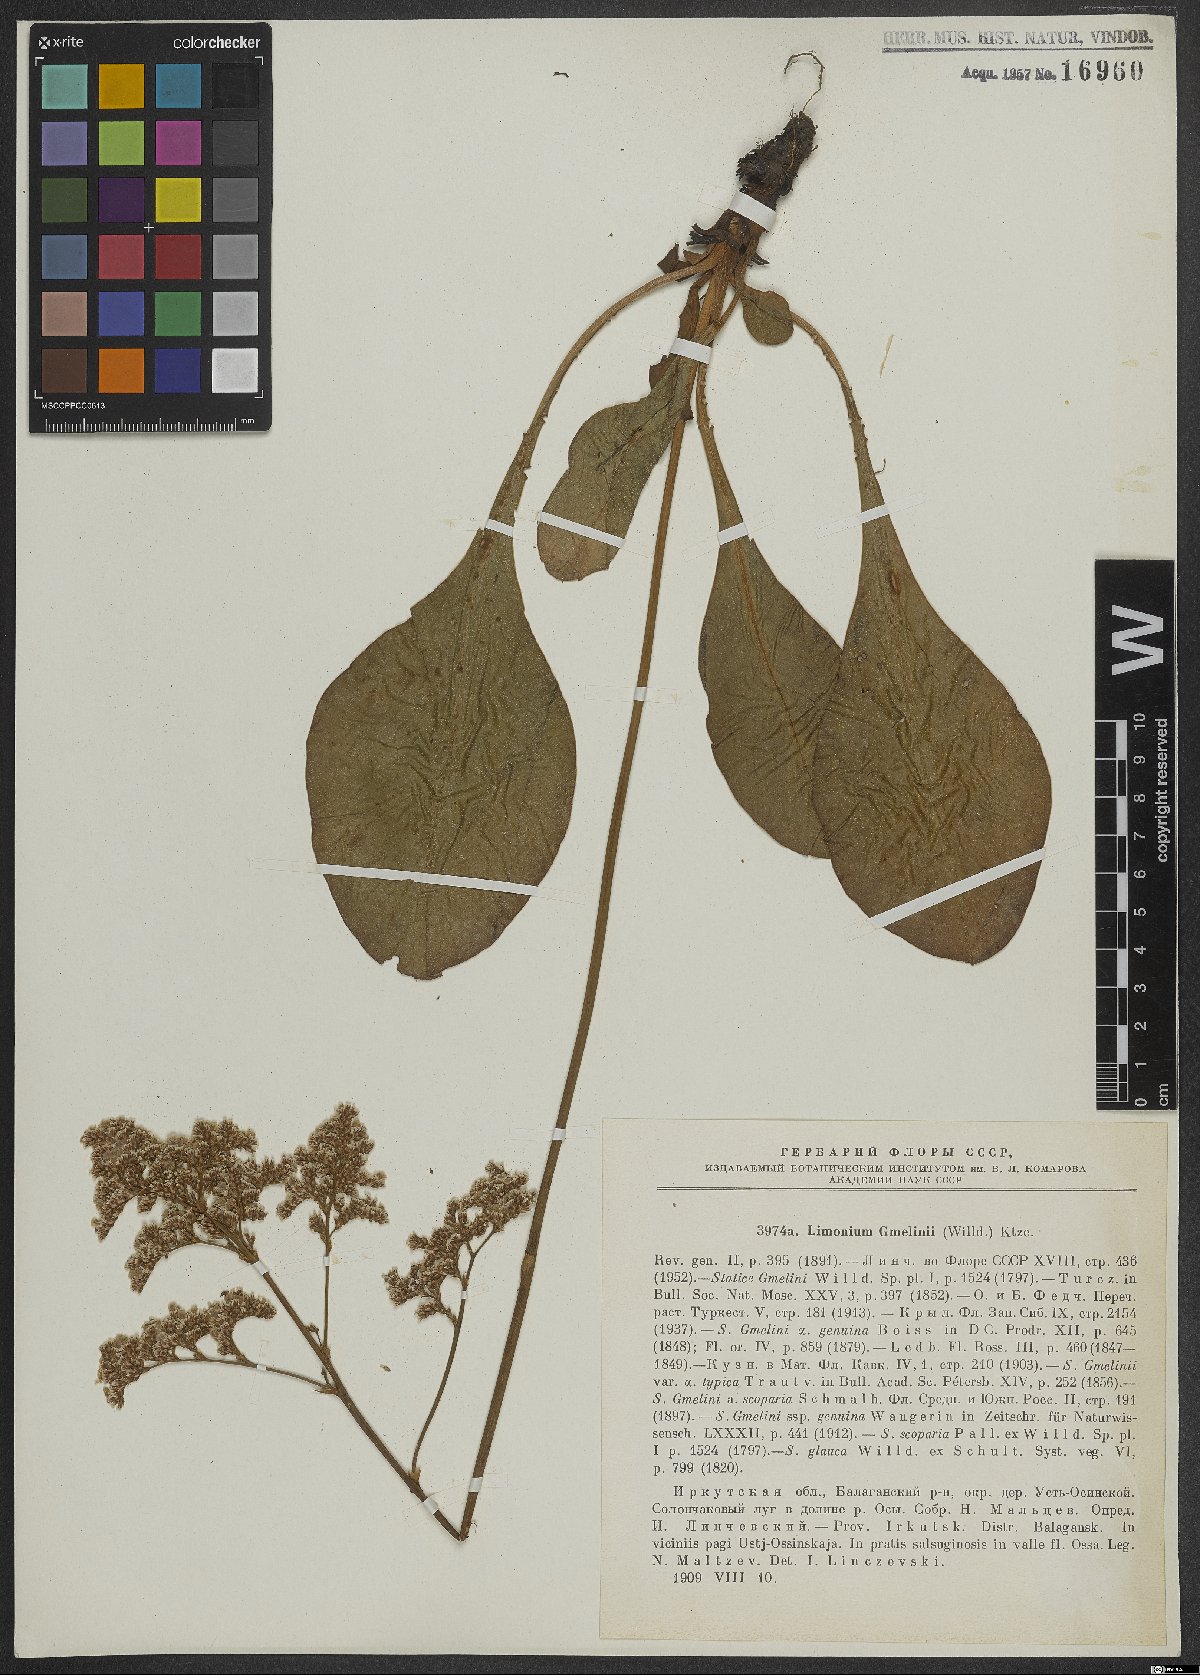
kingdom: Plantae
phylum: Tracheophyta
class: Magnoliopsida
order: Caryophyllales
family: Plumbaginaceae
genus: Limonium
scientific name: Limonium gmelini
